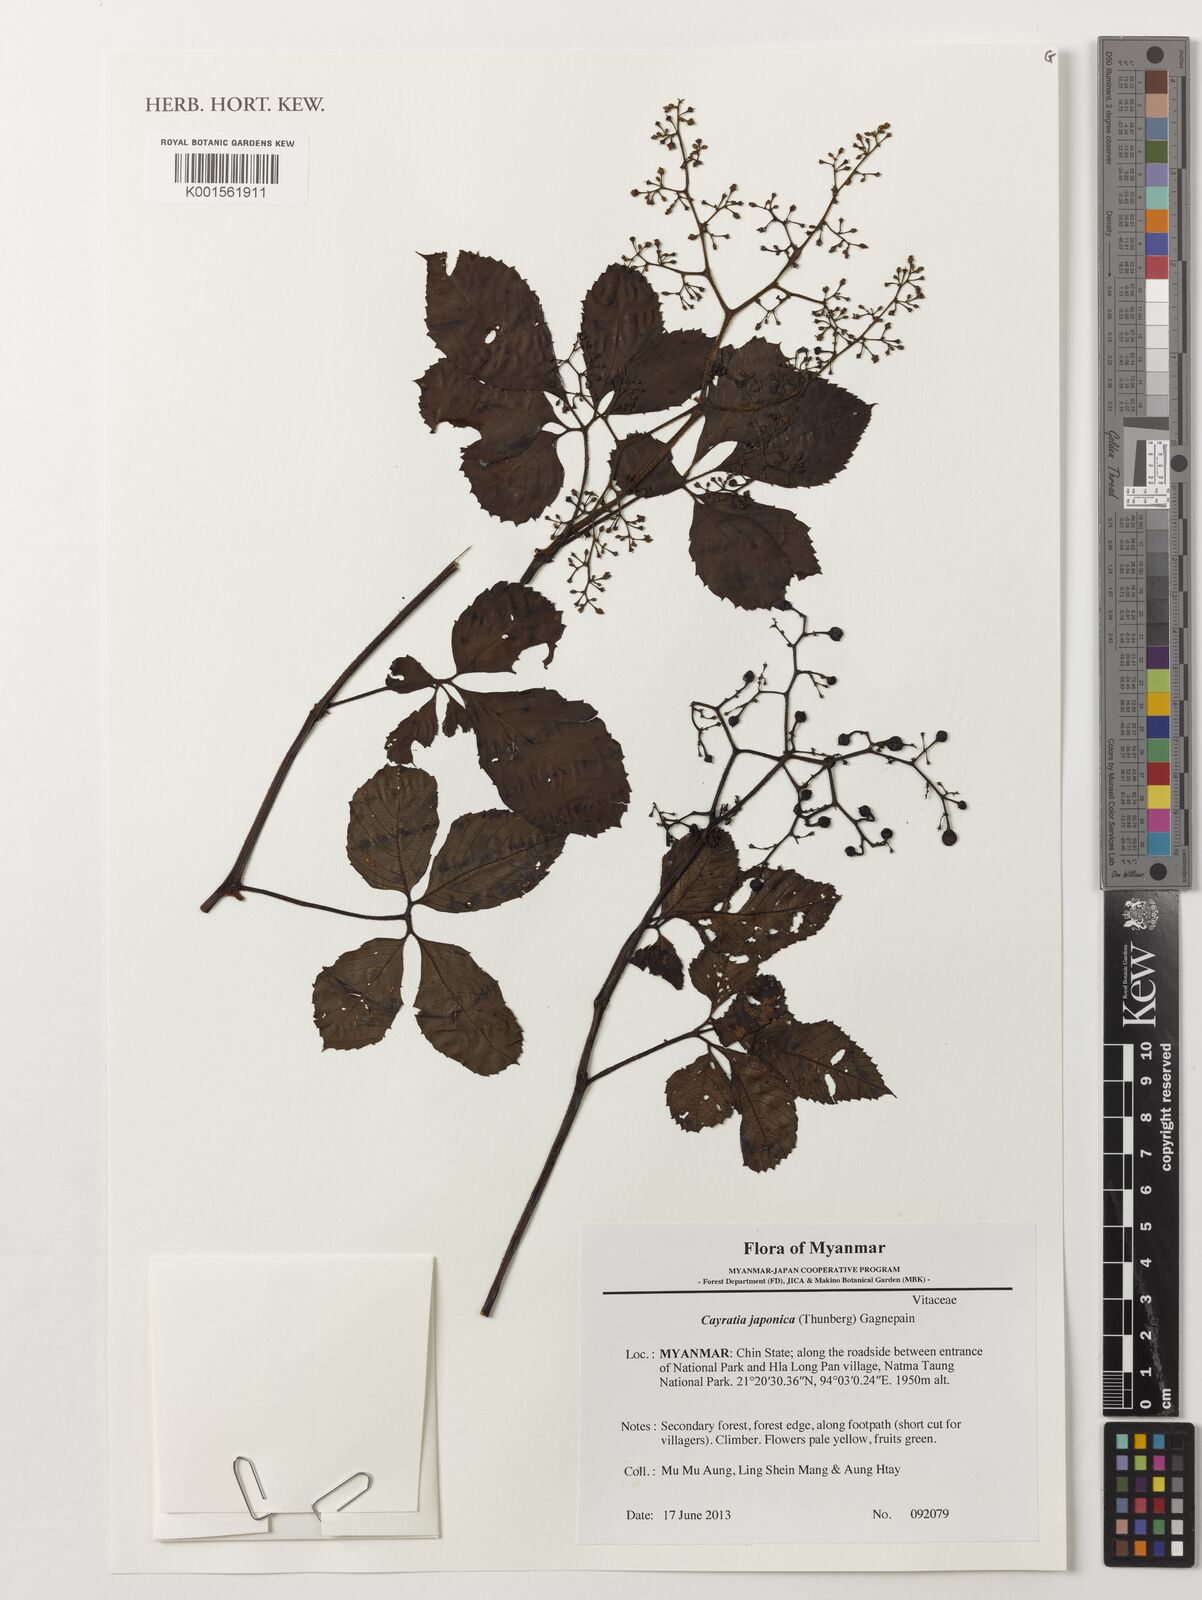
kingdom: Plantae
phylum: Tracheophyta
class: Magnoliopsida
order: Vitales
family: Vitaceae
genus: Causonis
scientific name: Causonis japonica
